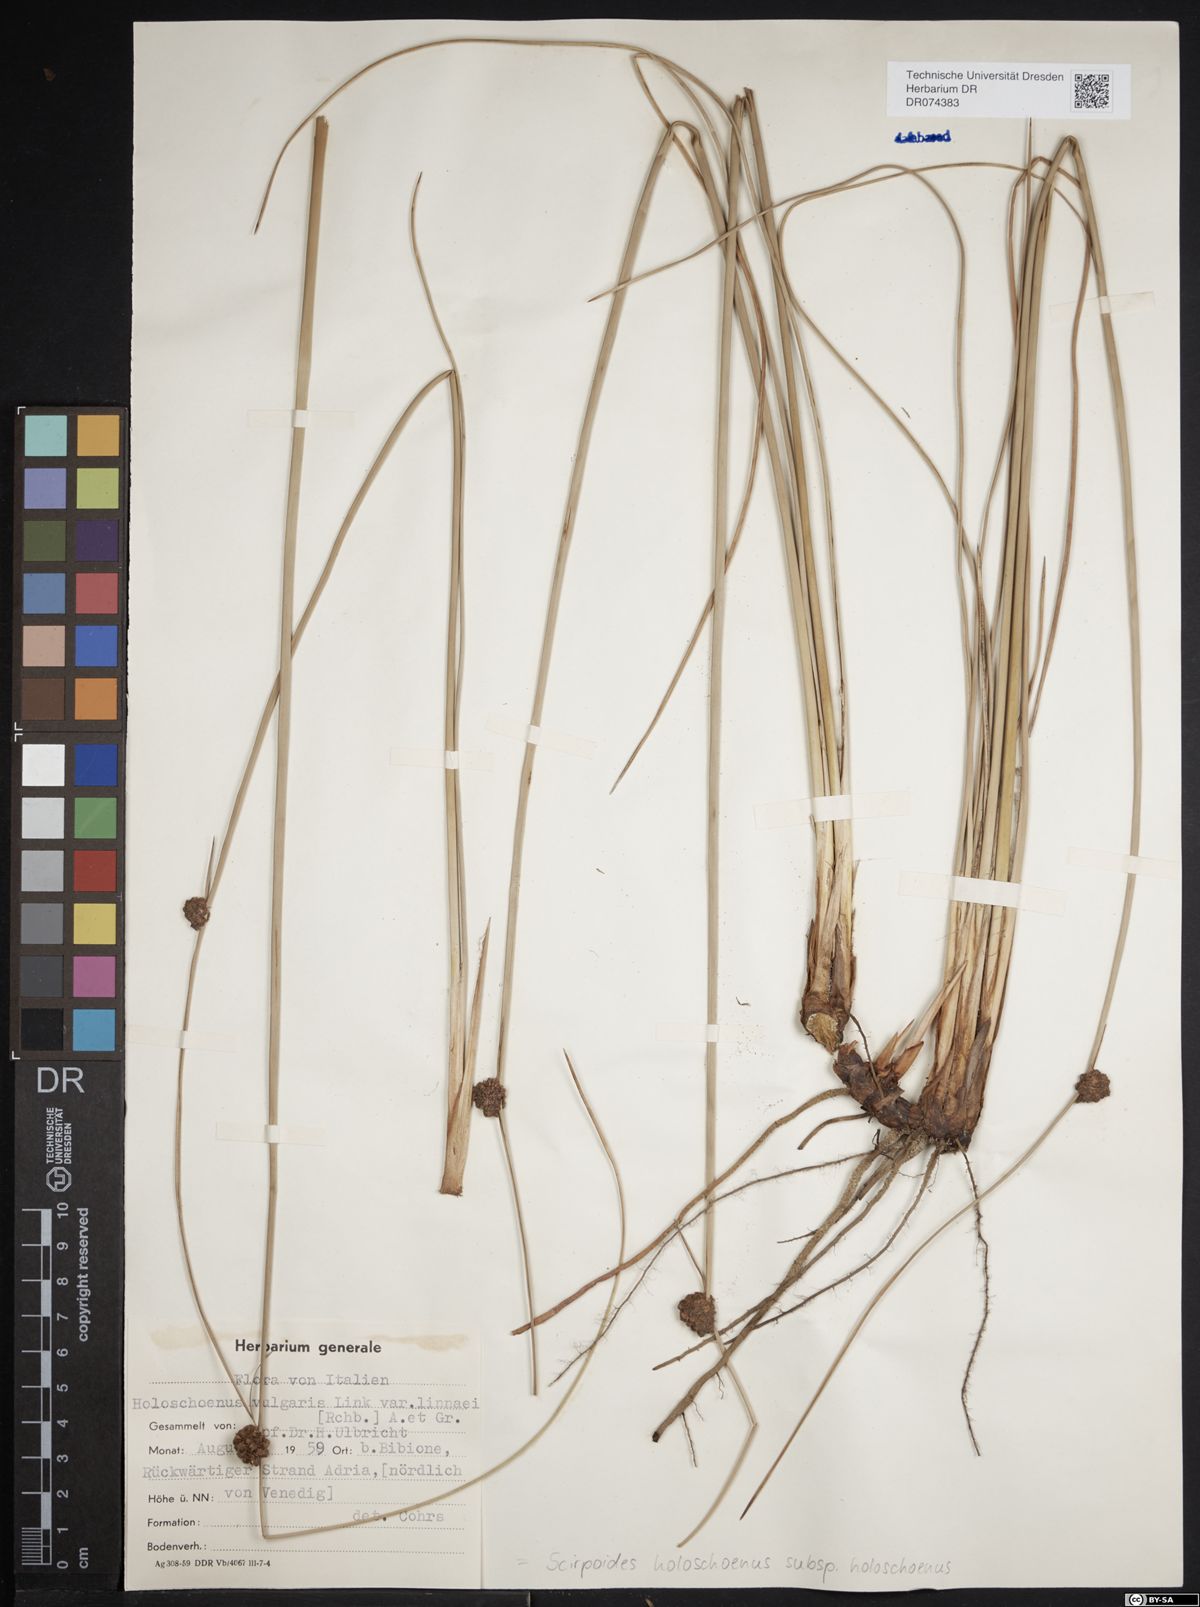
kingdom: Plantae
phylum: Tracheophyta
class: Liliopsida
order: Poales
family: Cyperaceae
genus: Scirpoides
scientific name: Scirpoides holoschoenus
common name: Round-headed club-rush
